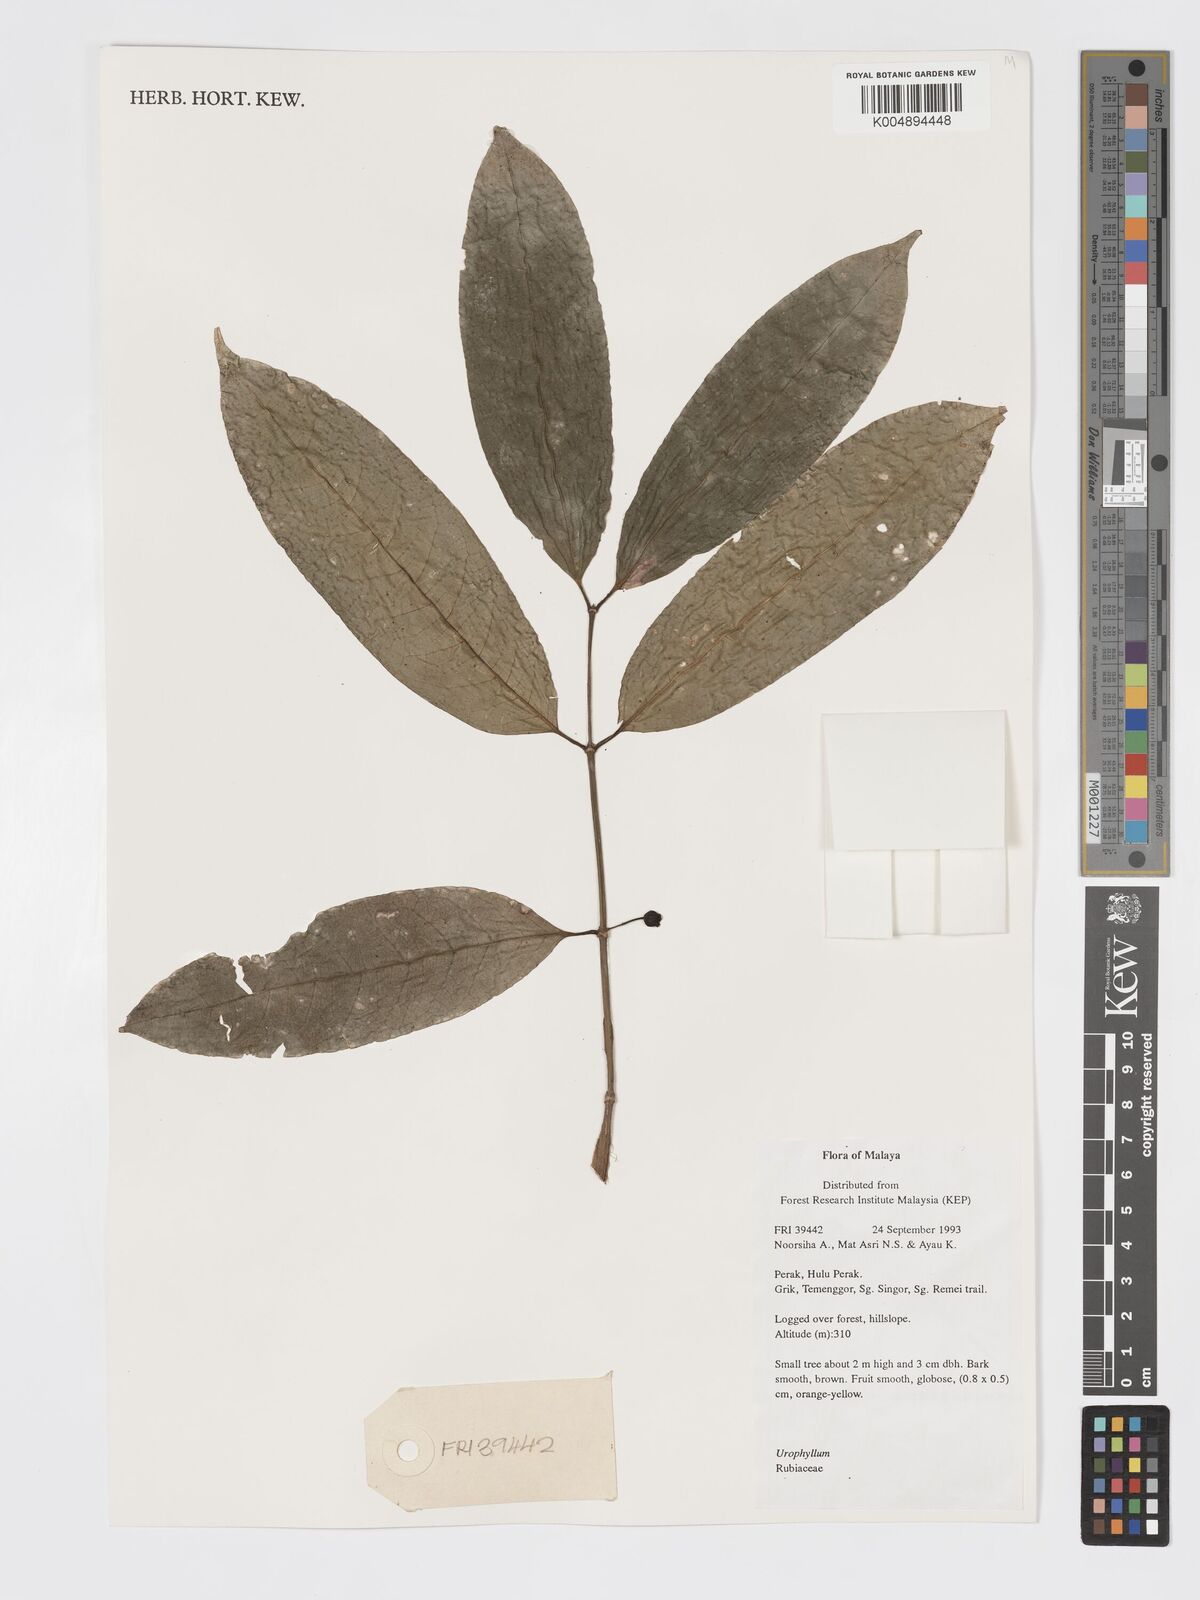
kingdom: Plantae
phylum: Tracheophyta
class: Magnoliopsida
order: Gentianales
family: Rubiaceae
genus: Urophyllum
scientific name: Urophyllum griffithianum
